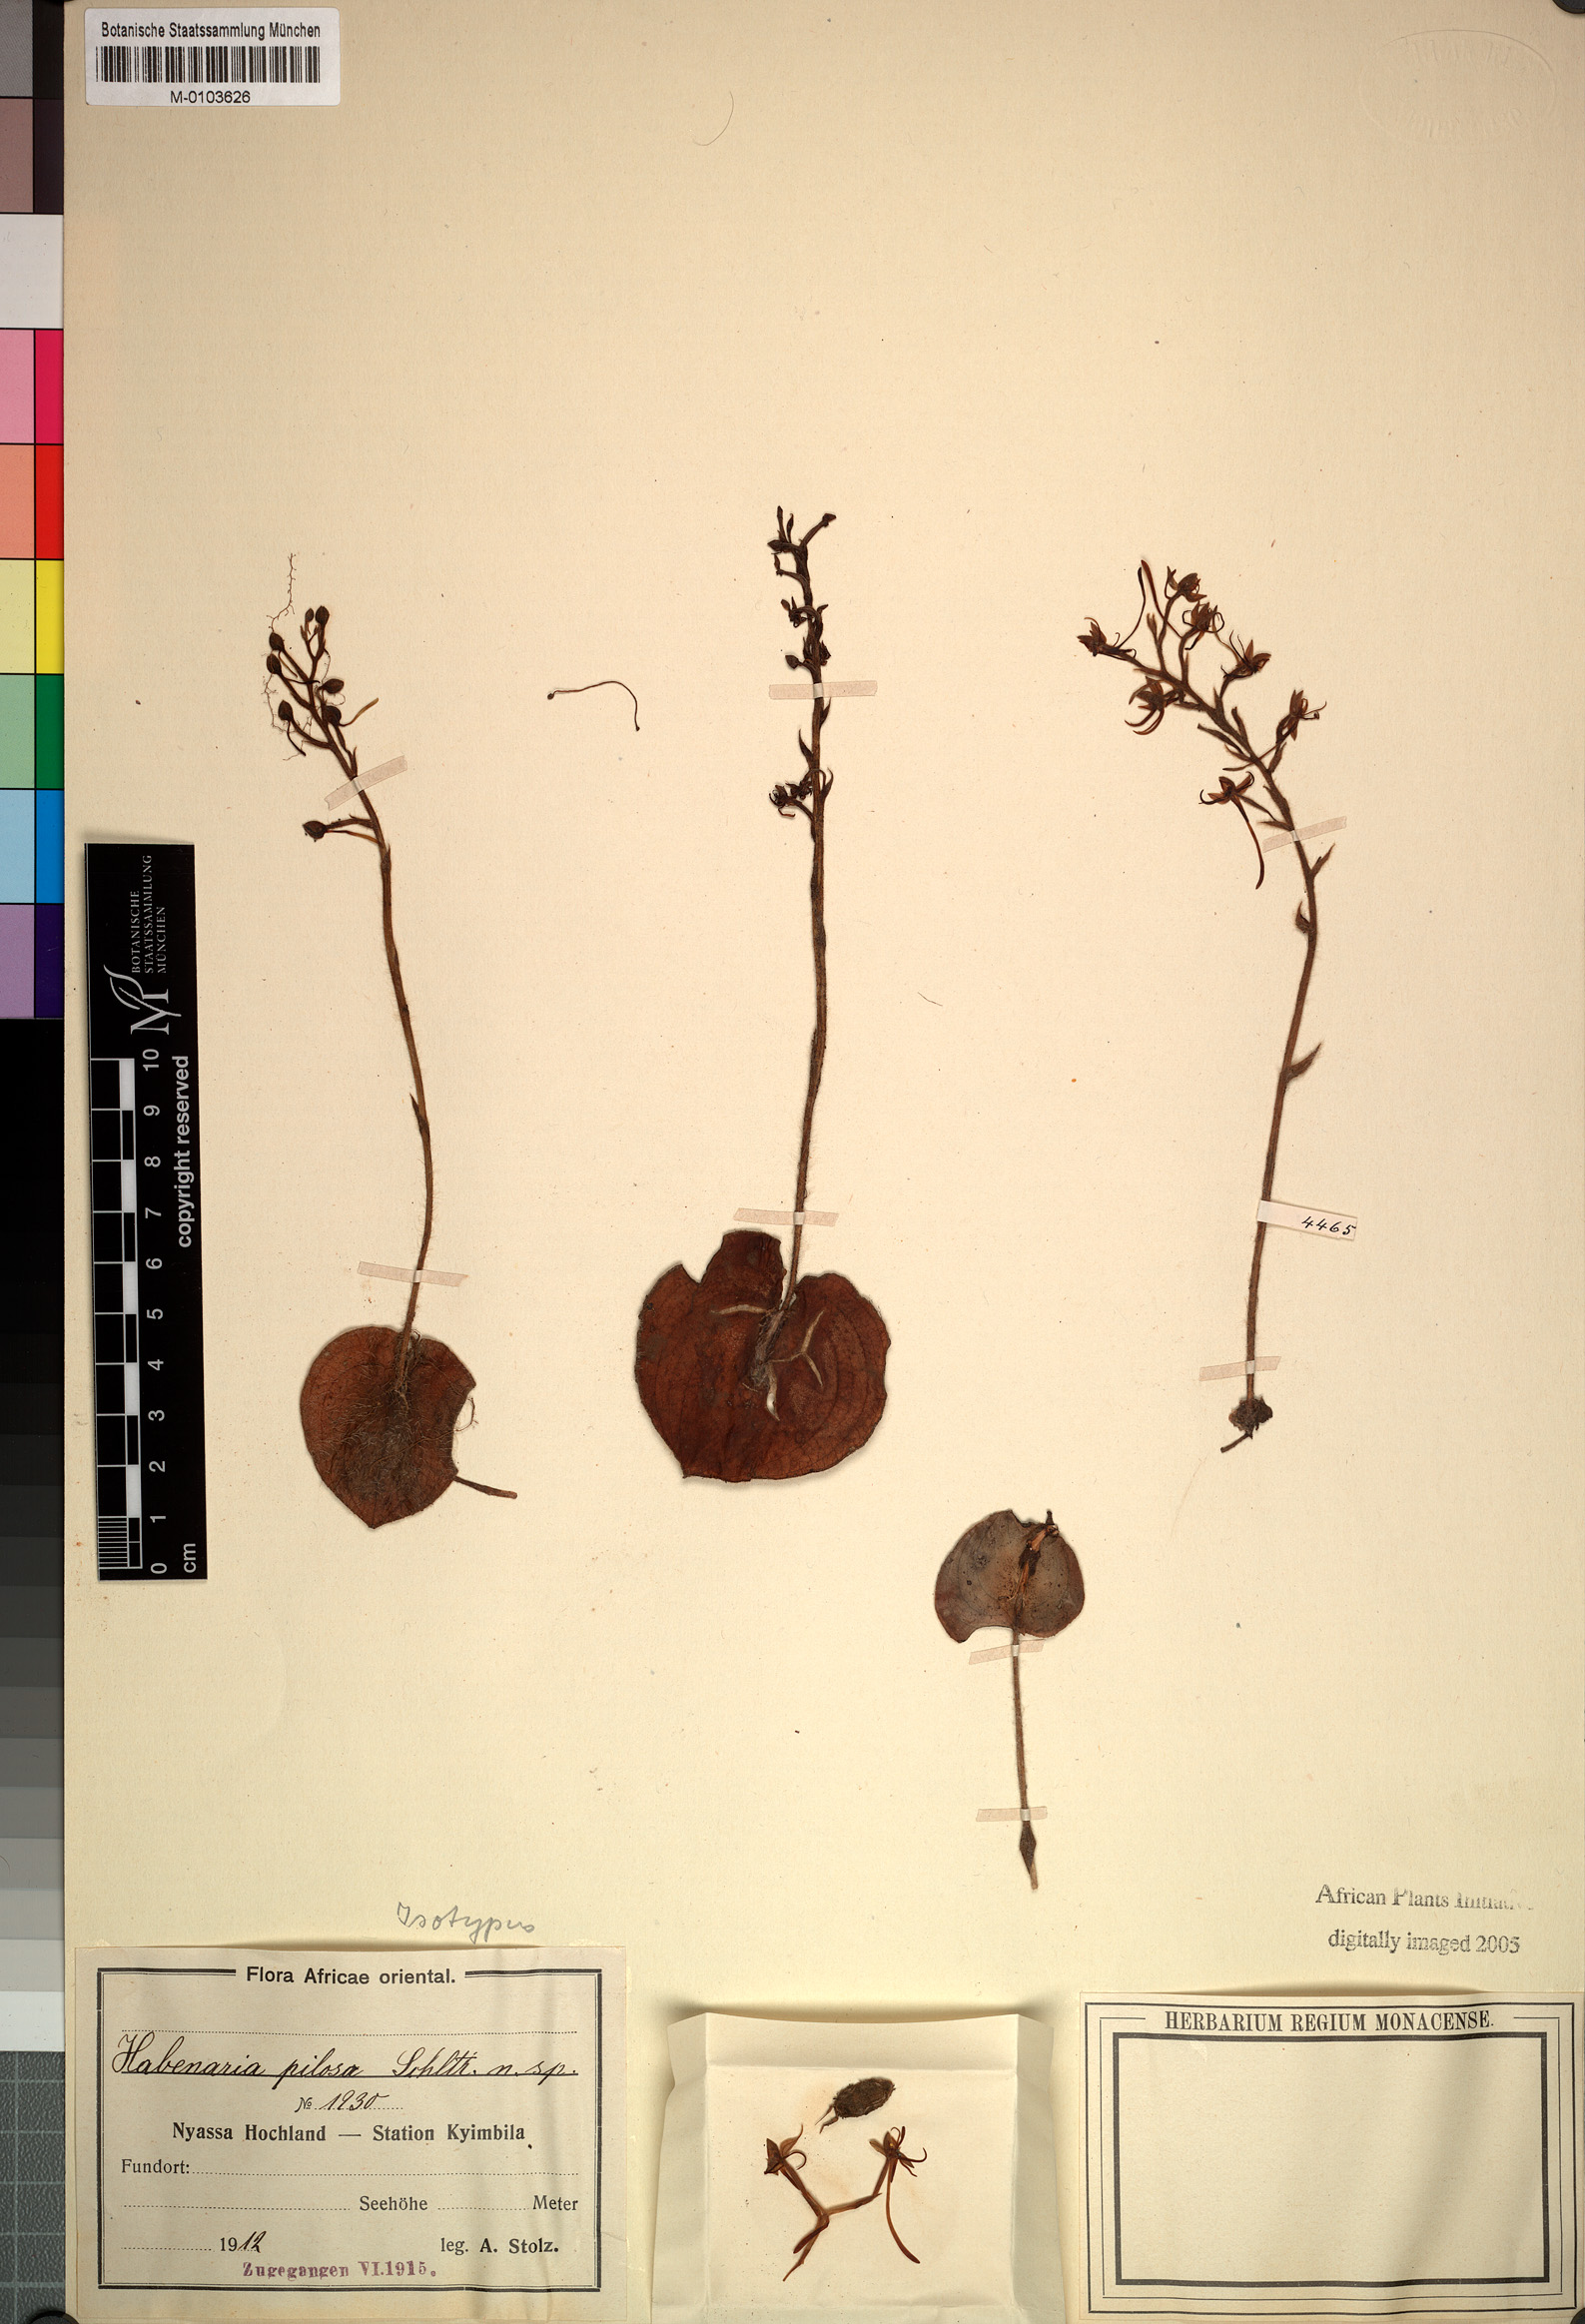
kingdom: Plantae
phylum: Tracheophyta
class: Liliopsida
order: Asparagales
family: Orchidaceae
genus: Habenaria
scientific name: Habenaria pilosa
